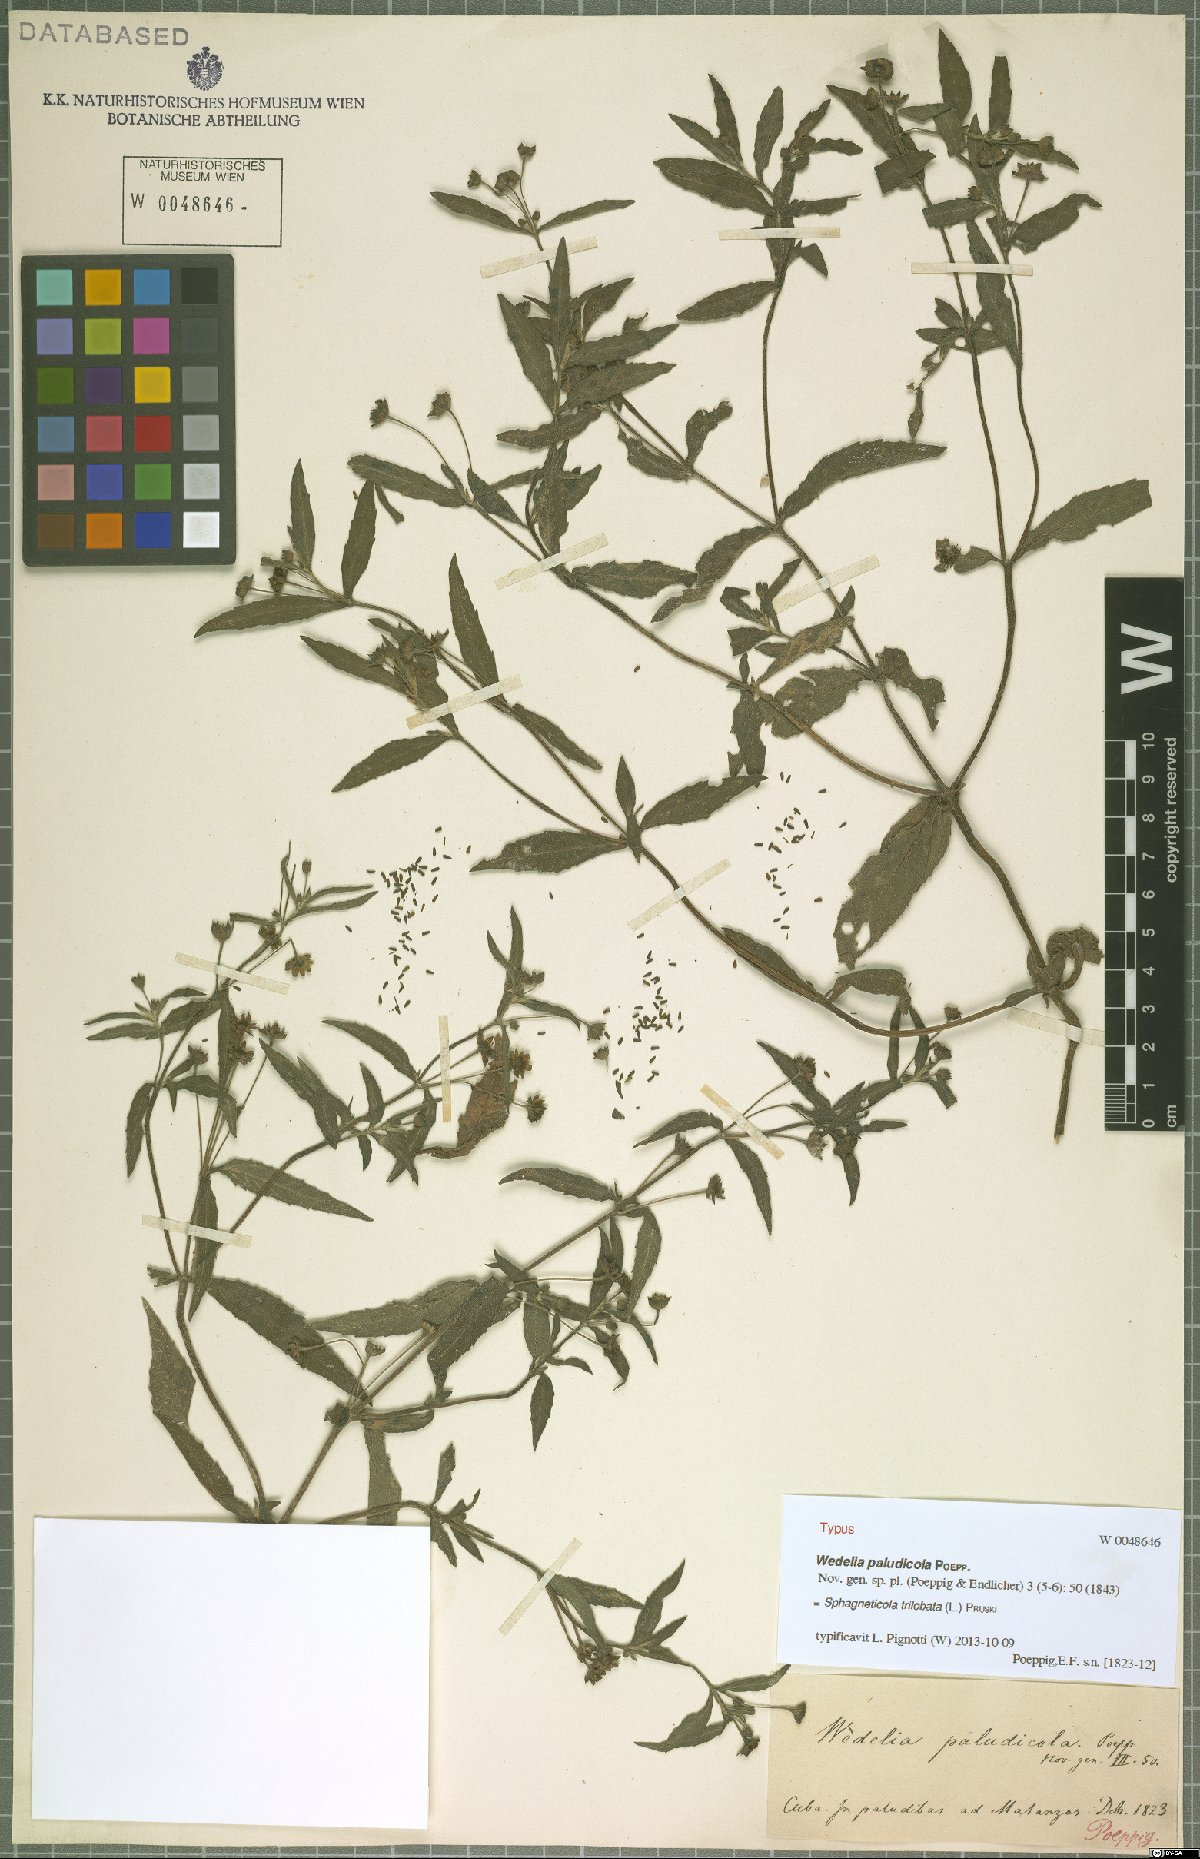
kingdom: Plantae
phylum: Tracheophyta
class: Magnoliopsida
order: Asterales
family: Asteraceae
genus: Sphagneticola
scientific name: Sphagneticola trilobata
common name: Bay biscayne creeping-oxeye
